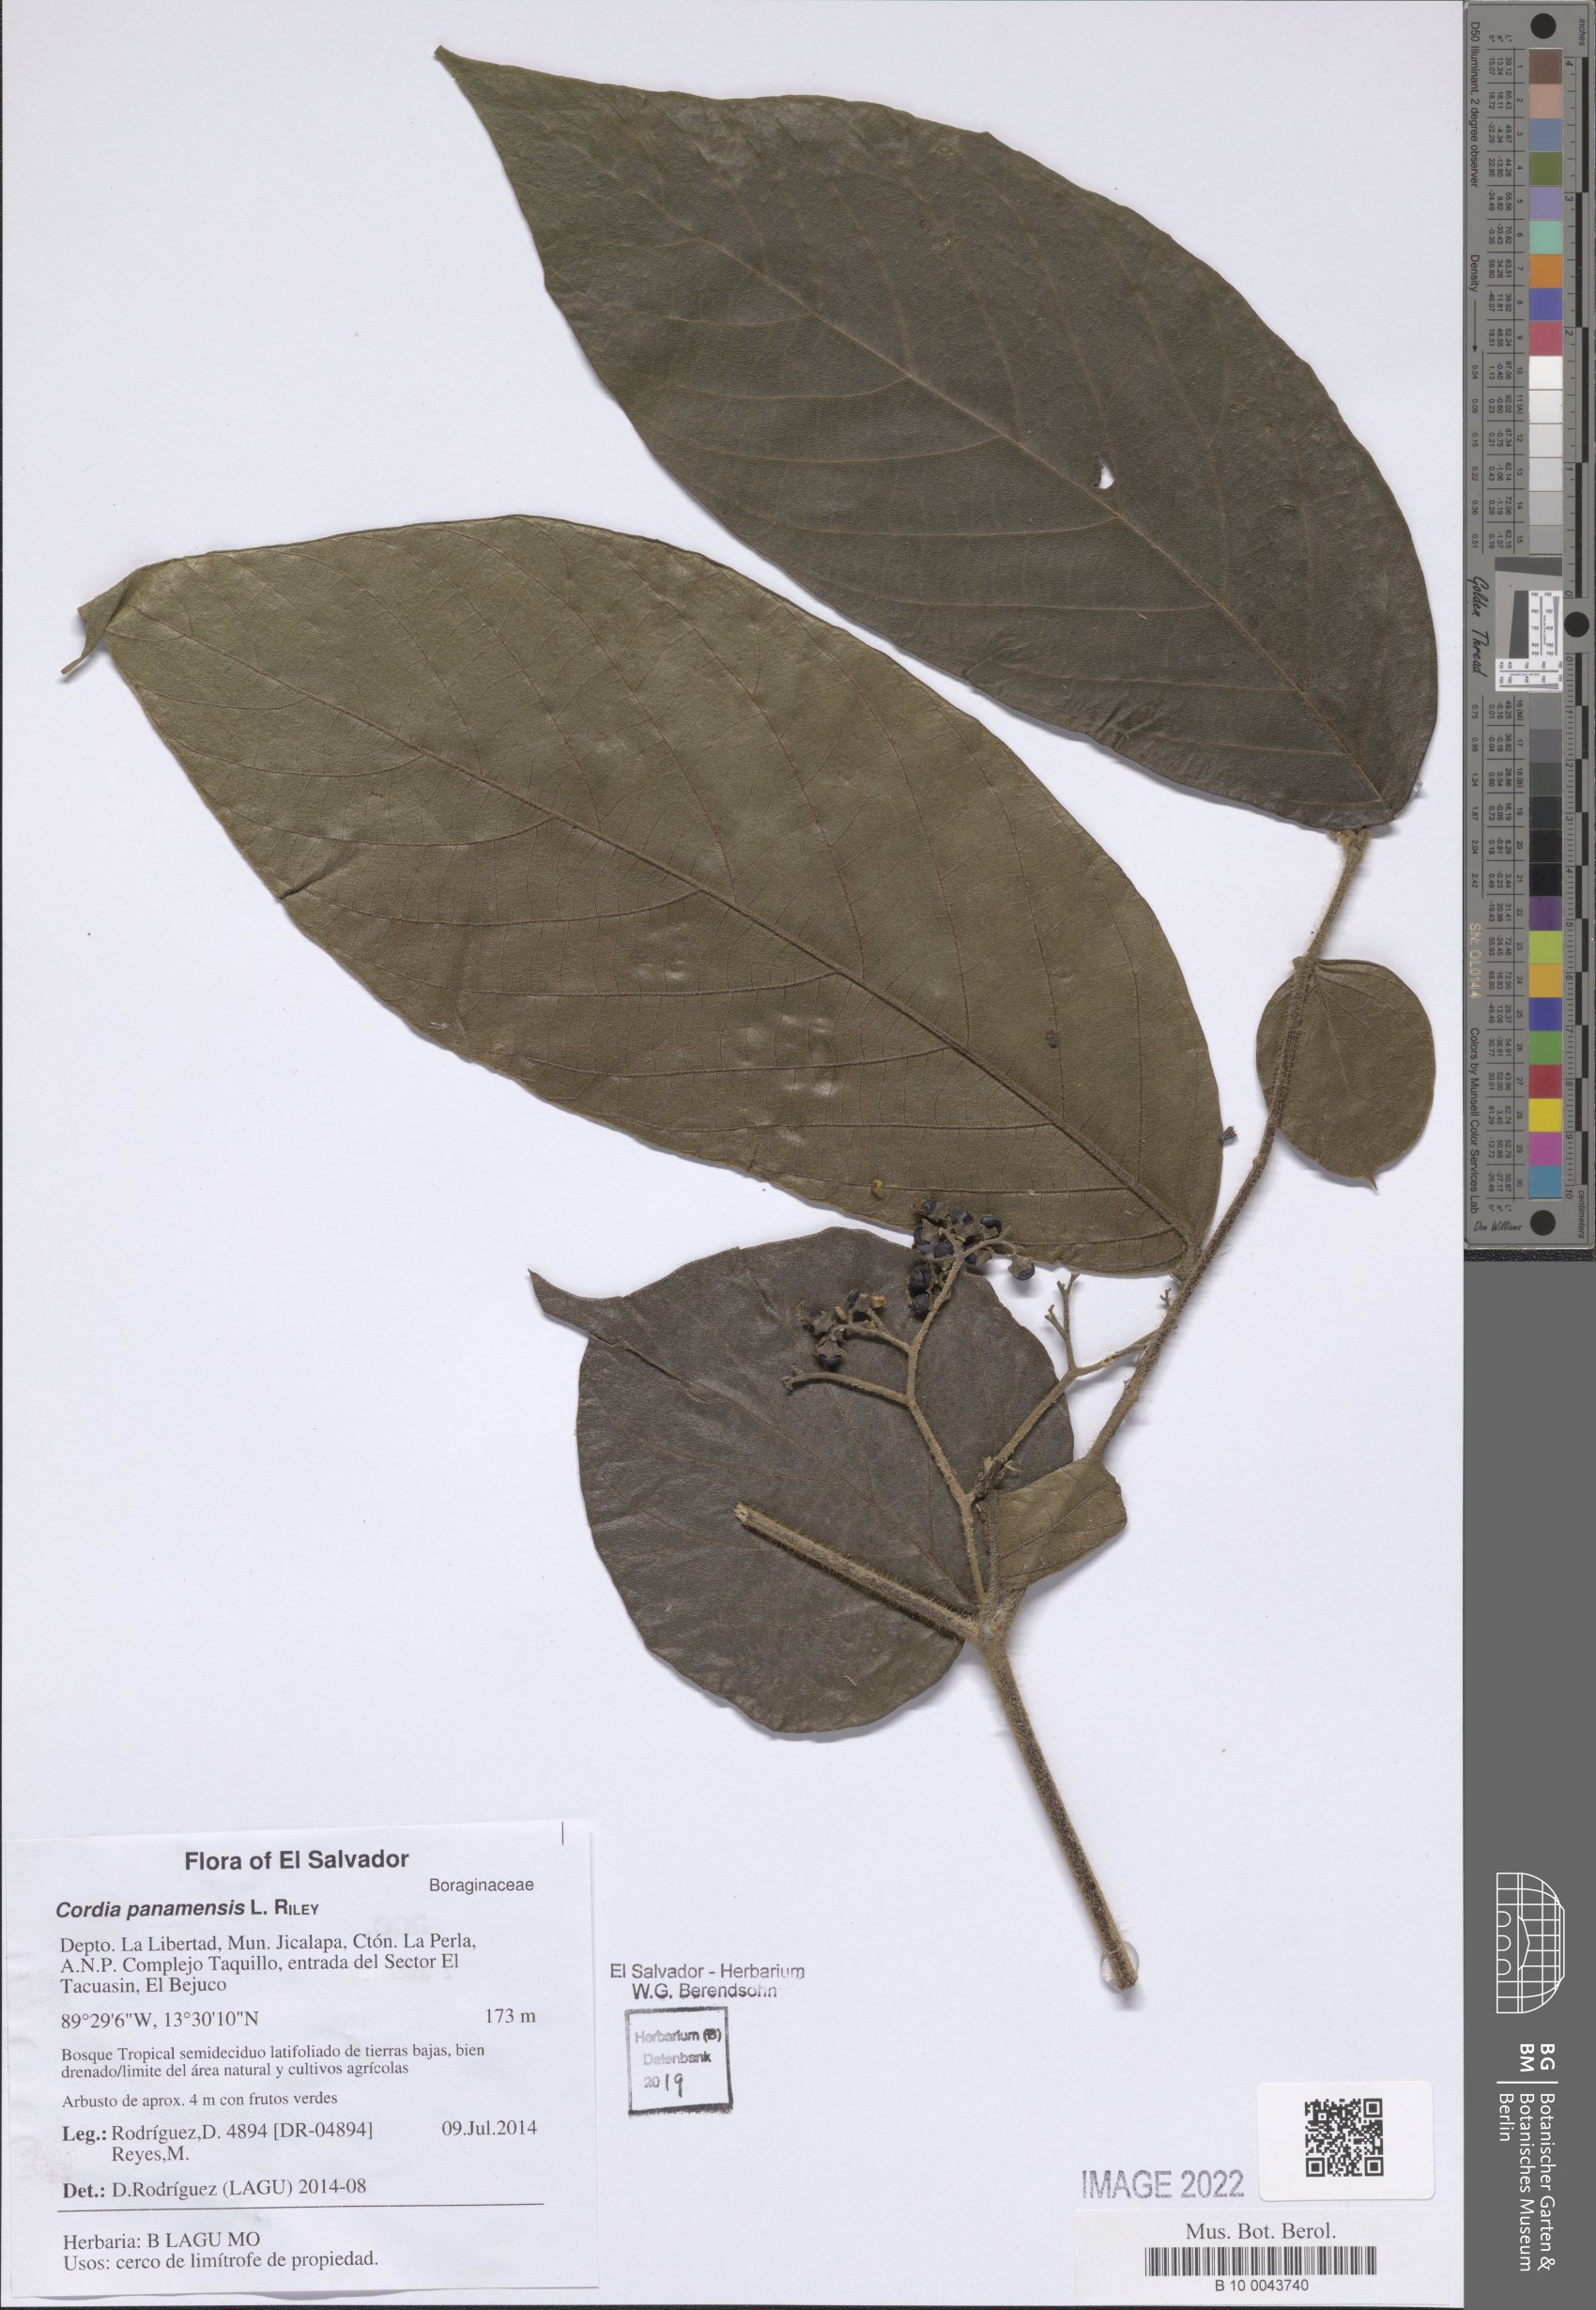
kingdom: Plantae
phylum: Tracheophyta
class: Magnoliopsida
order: Boraginales
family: Cordiaceae
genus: Cordia
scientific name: Cordia panamensis
